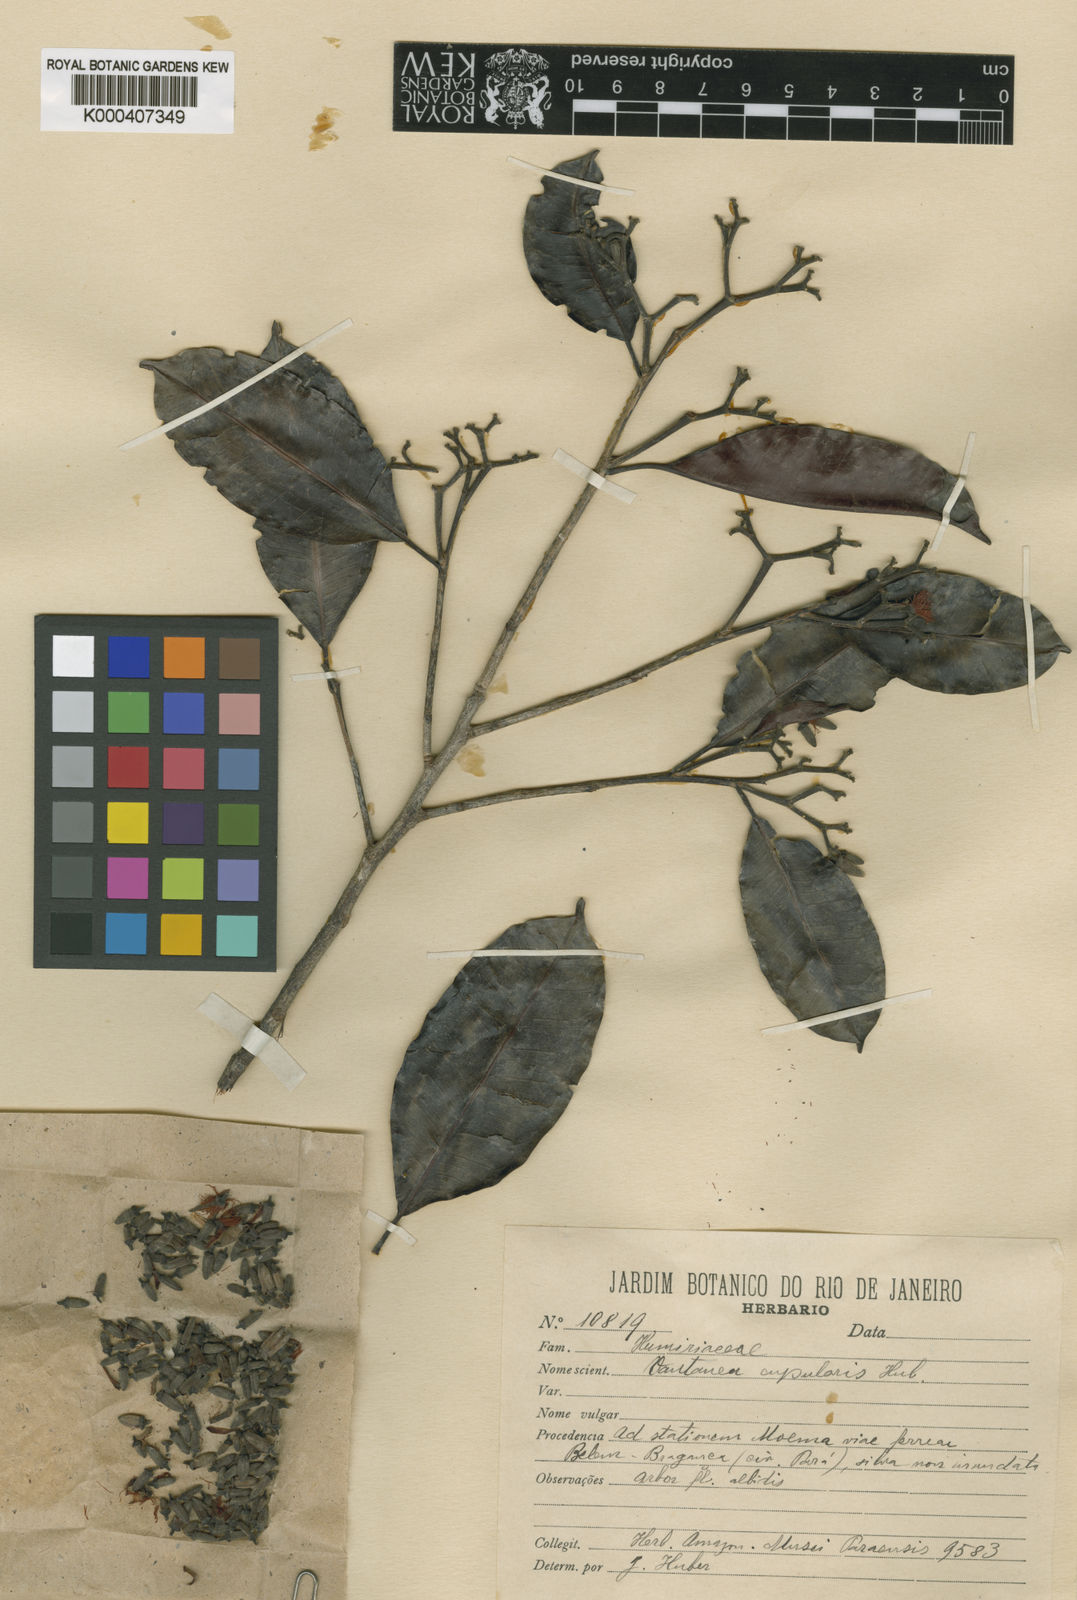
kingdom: Plantae
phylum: Tracheophyta
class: Magnoliopsida
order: Malpighiales
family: Humiriaceae
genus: Vantanea
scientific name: Vantanea
